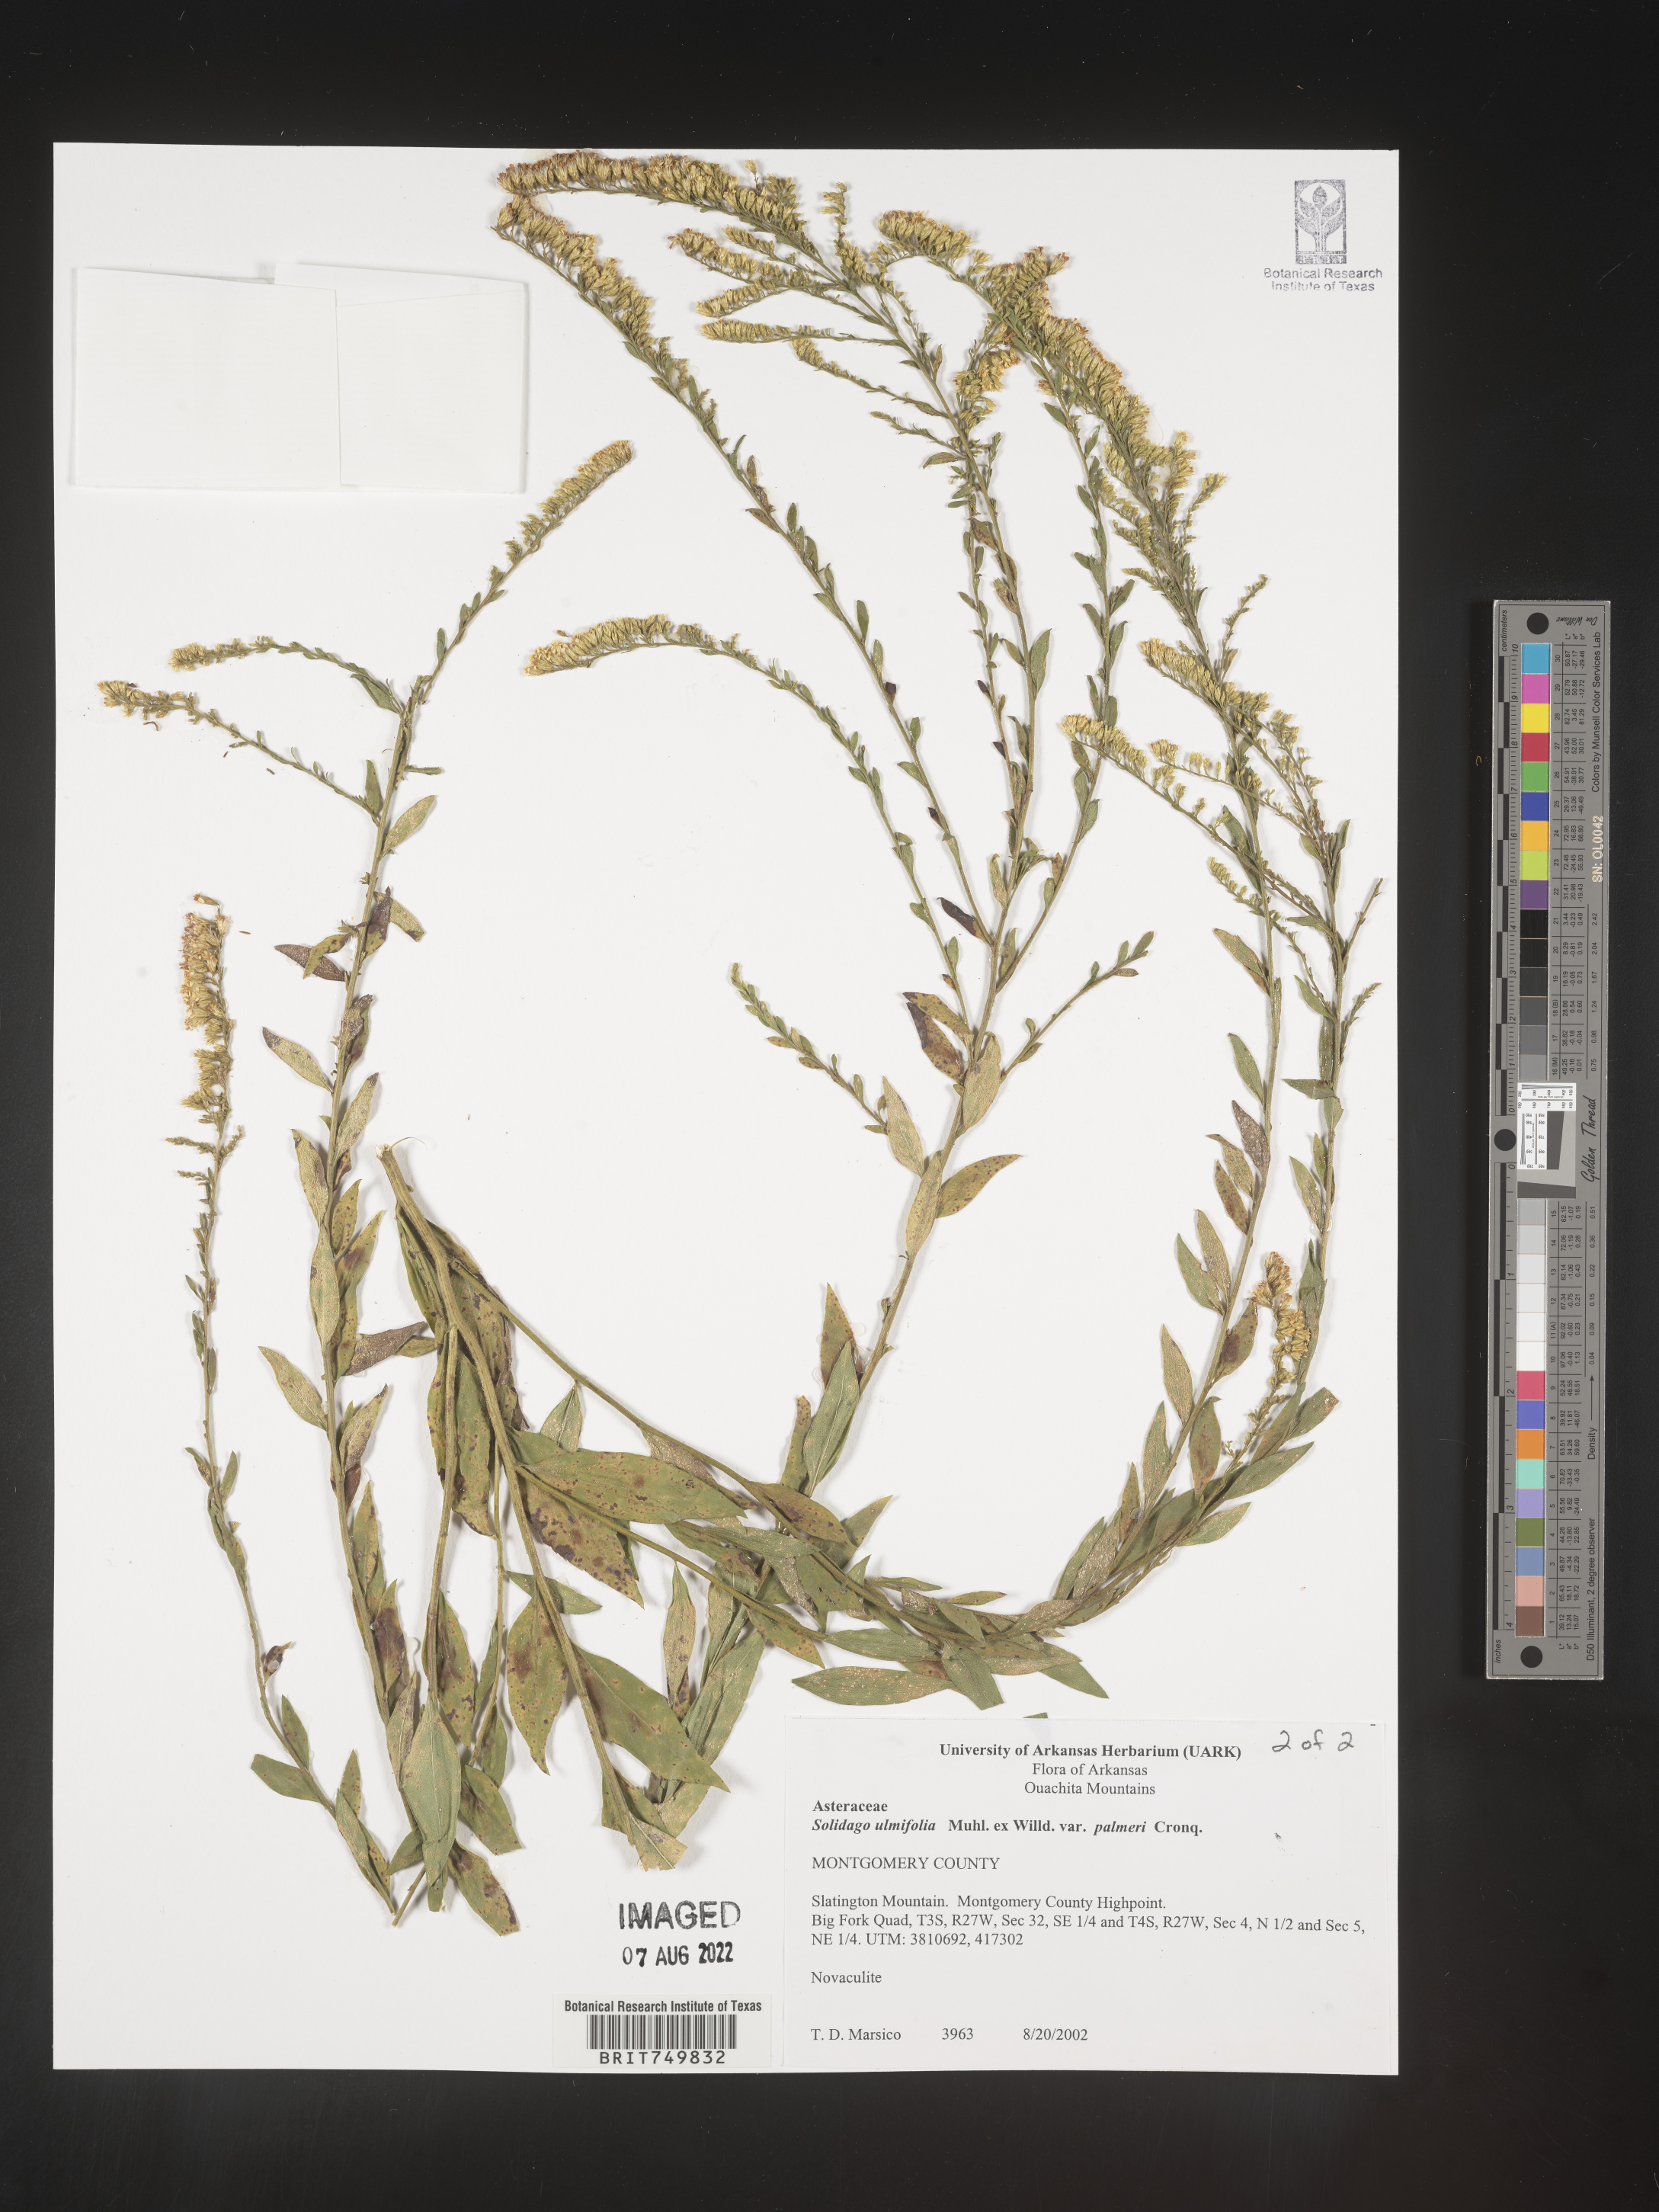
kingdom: Plantae
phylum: Tracheophyta
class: Magnoliopsida
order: Asterales
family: Asteraceae
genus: Solidago
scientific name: Solidago ulmifolia
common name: Elm-leaf goldenrod
